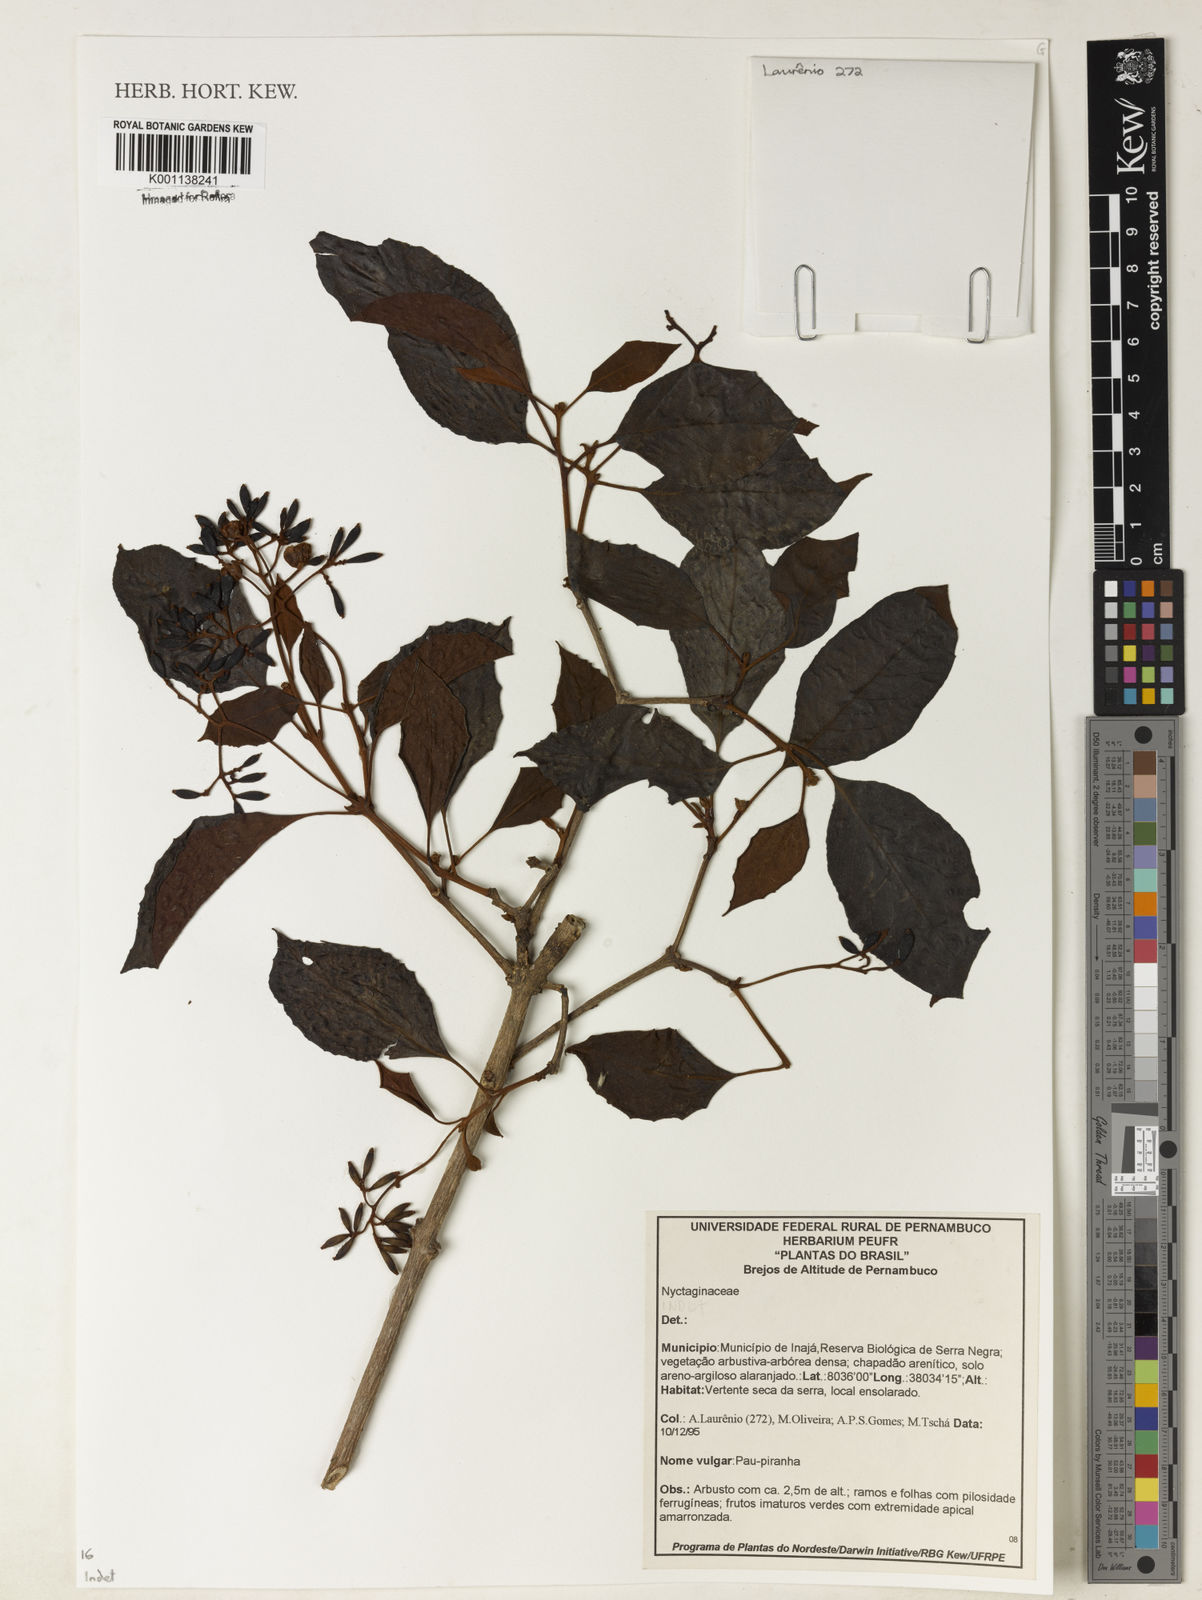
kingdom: Plantae
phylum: Tracheophyta
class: Magnoliopsida
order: Caryophyllales
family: Nyctaginaceae
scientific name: Nyctaginaceae
